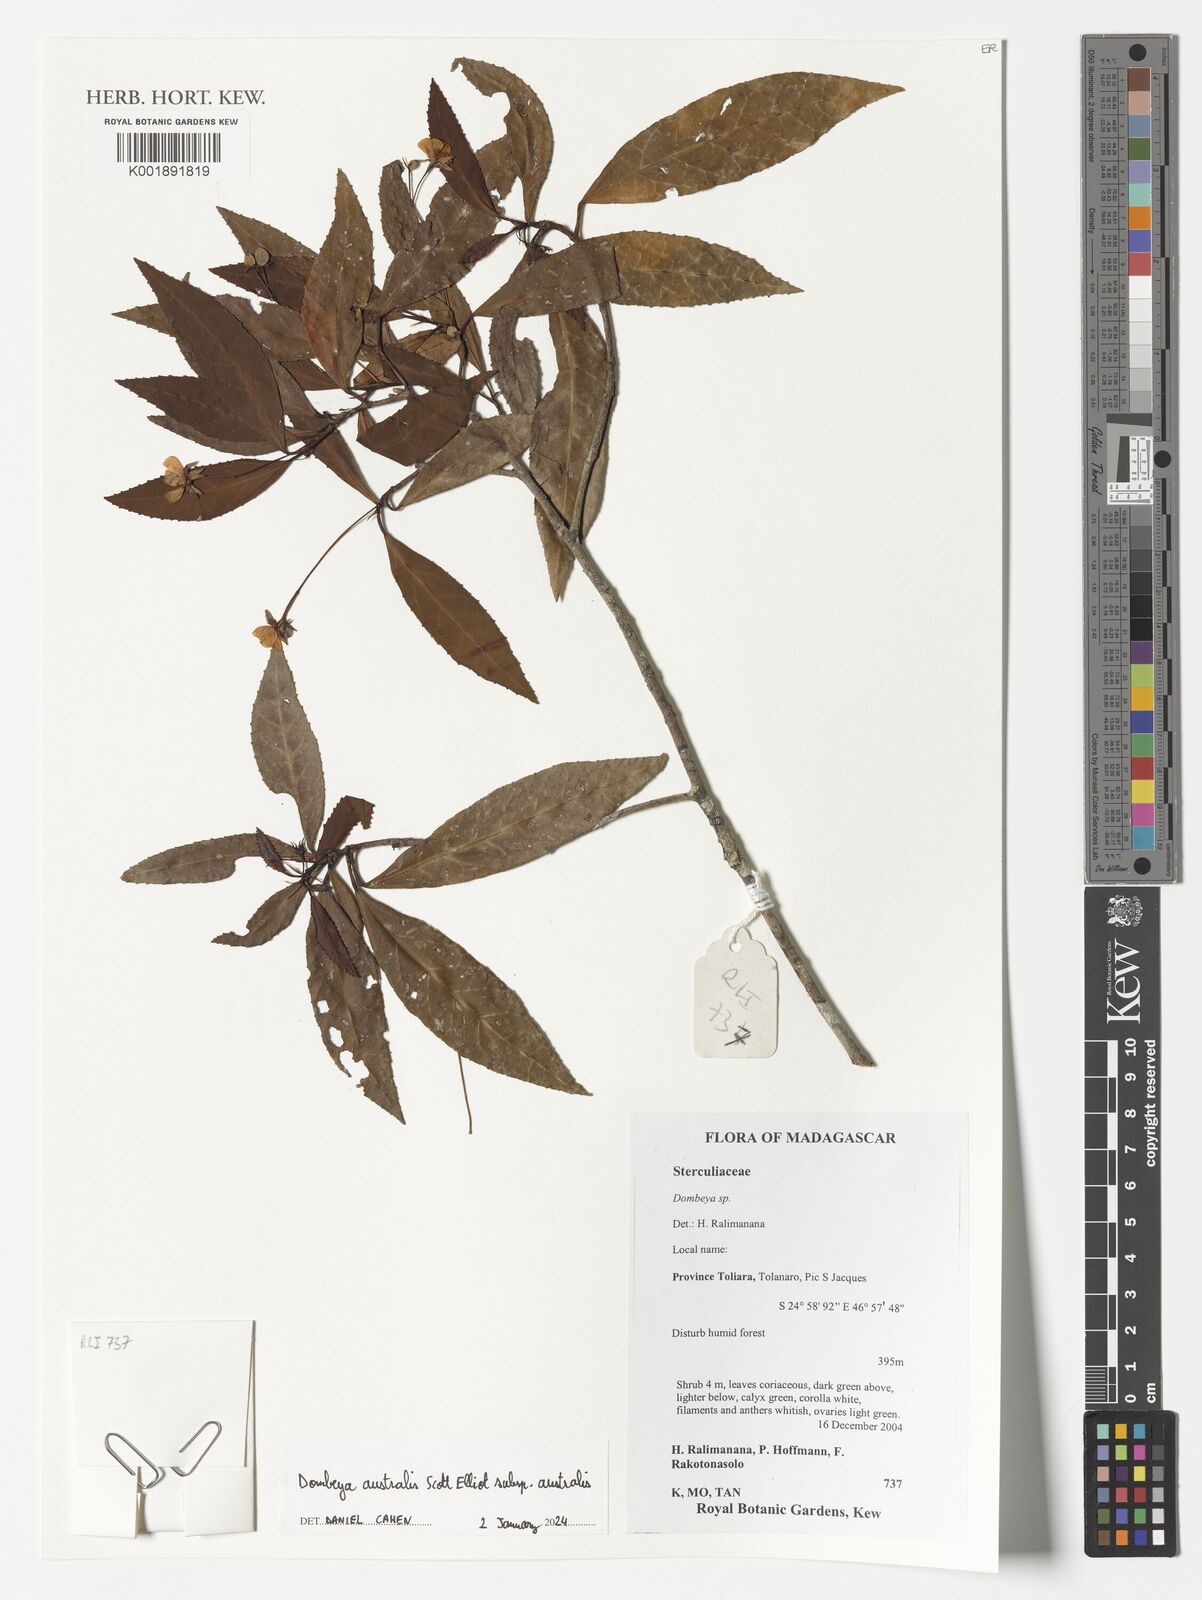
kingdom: Plantae
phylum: Tracheophyta
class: Magnoliopsida
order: Malvales
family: Malvaceae
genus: Dombeya
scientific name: Dombeya australis
